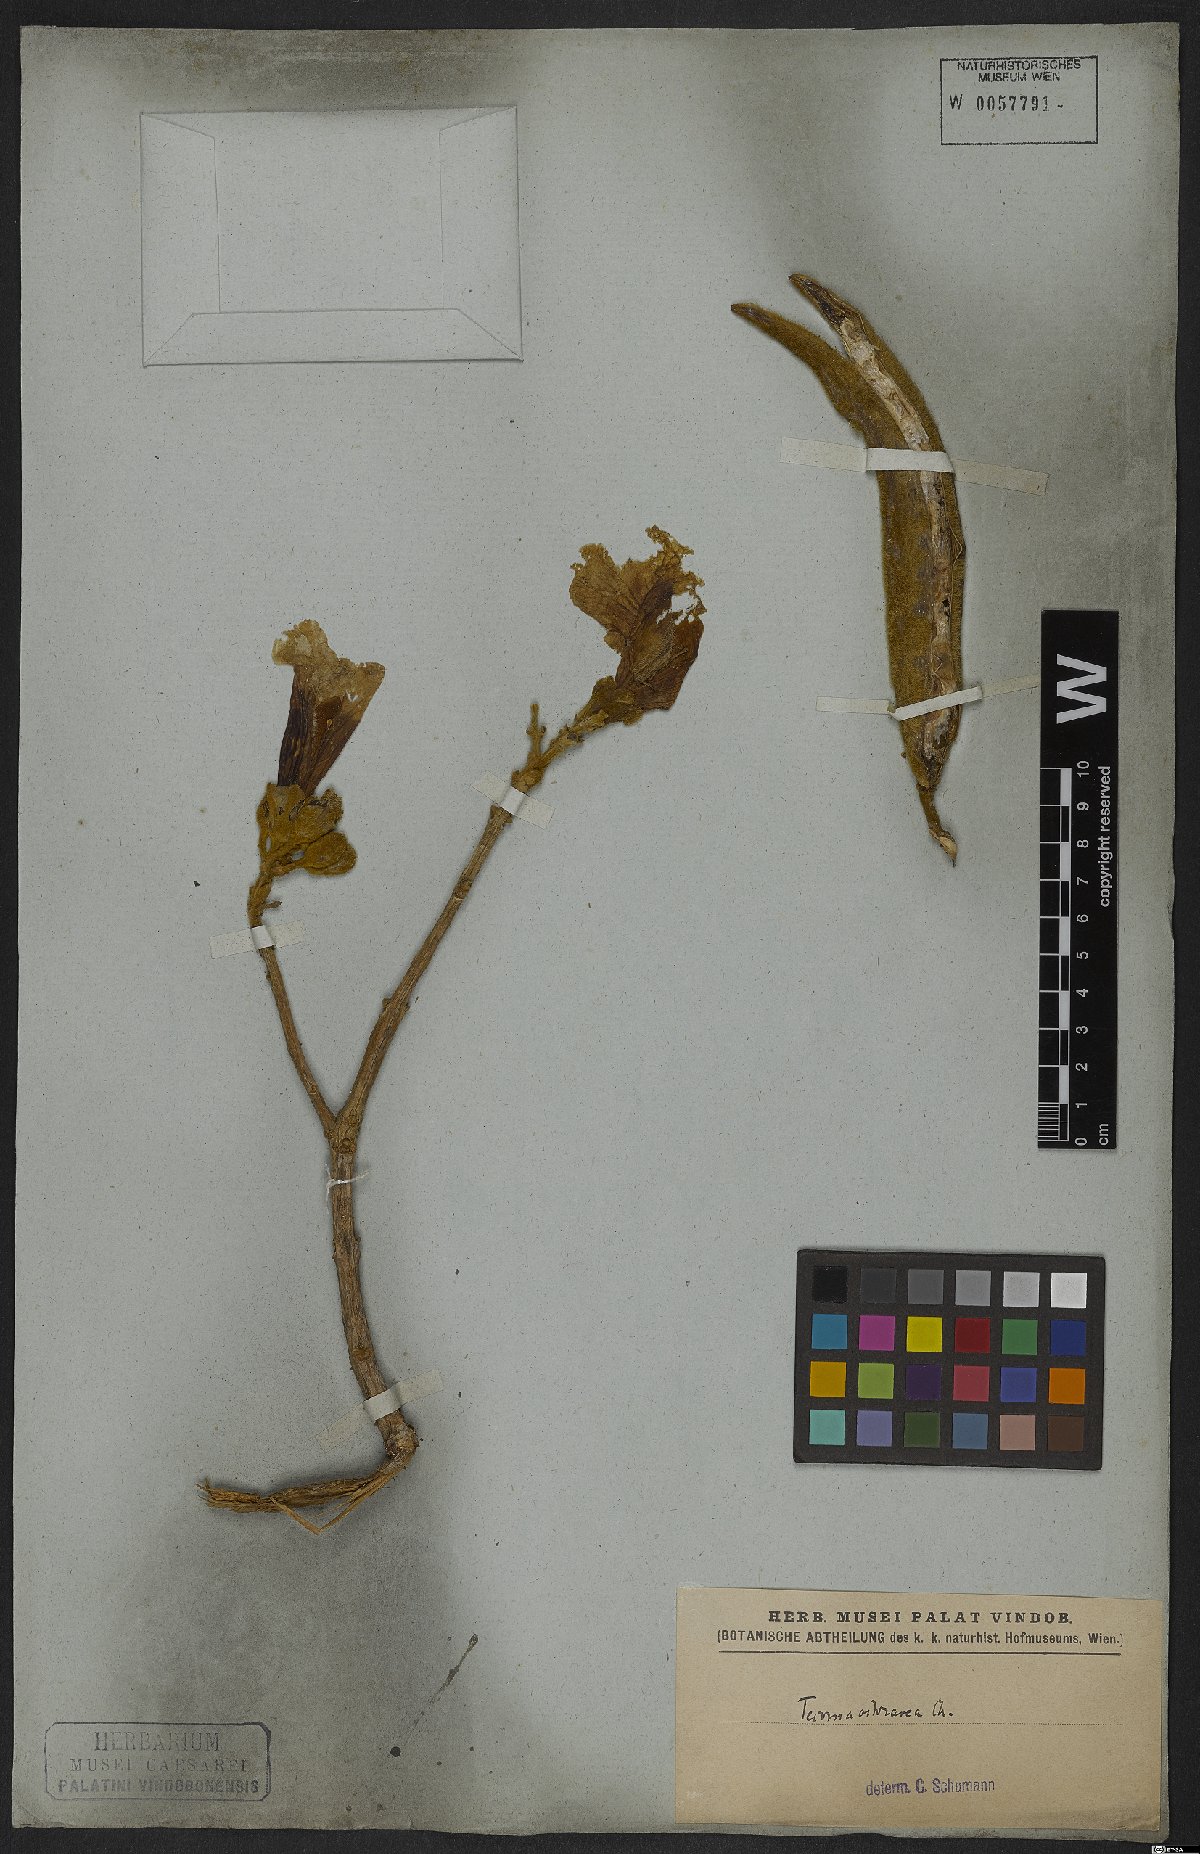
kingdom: Plantae
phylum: Tracheophyta
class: Magnoliopsida
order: Lamiales
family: Bignoniaceae
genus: Handroanthus
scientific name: Handroanthus ochraceus
